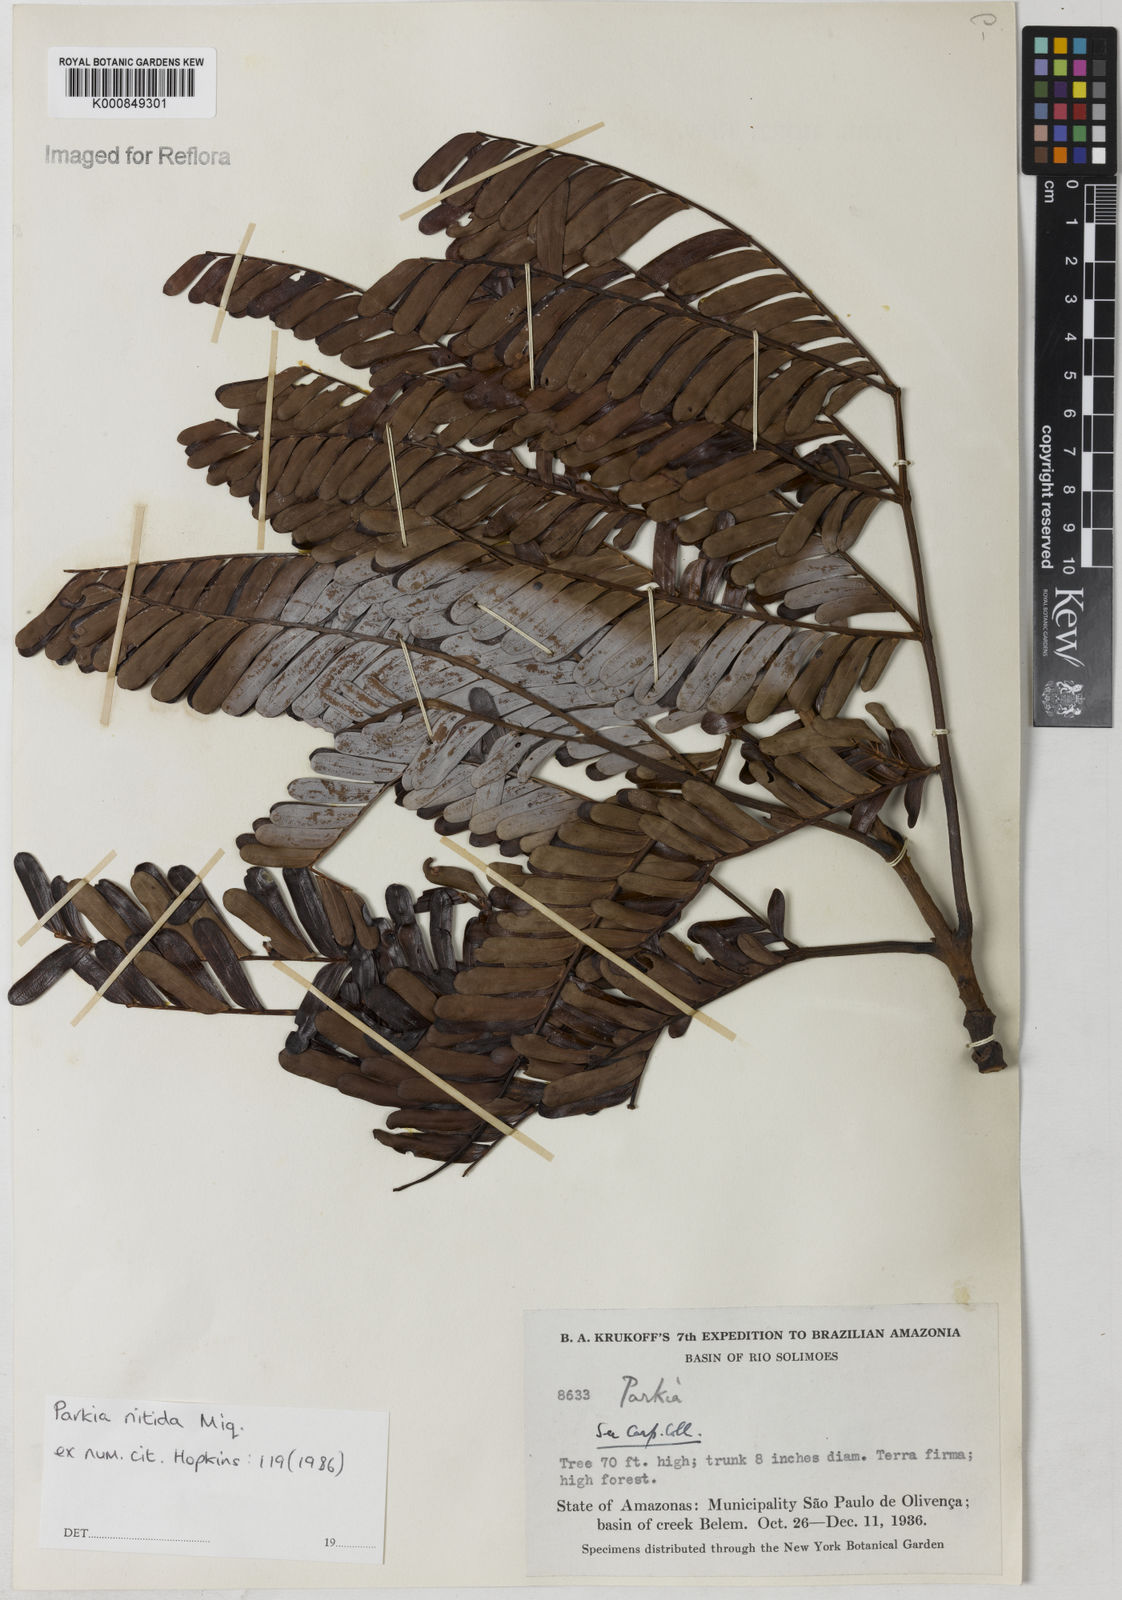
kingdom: Plantae
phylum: Tracheophyta
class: Magnoliopsida
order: Fabales
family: Fabaceae
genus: Parkia
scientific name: Parkia nitida
